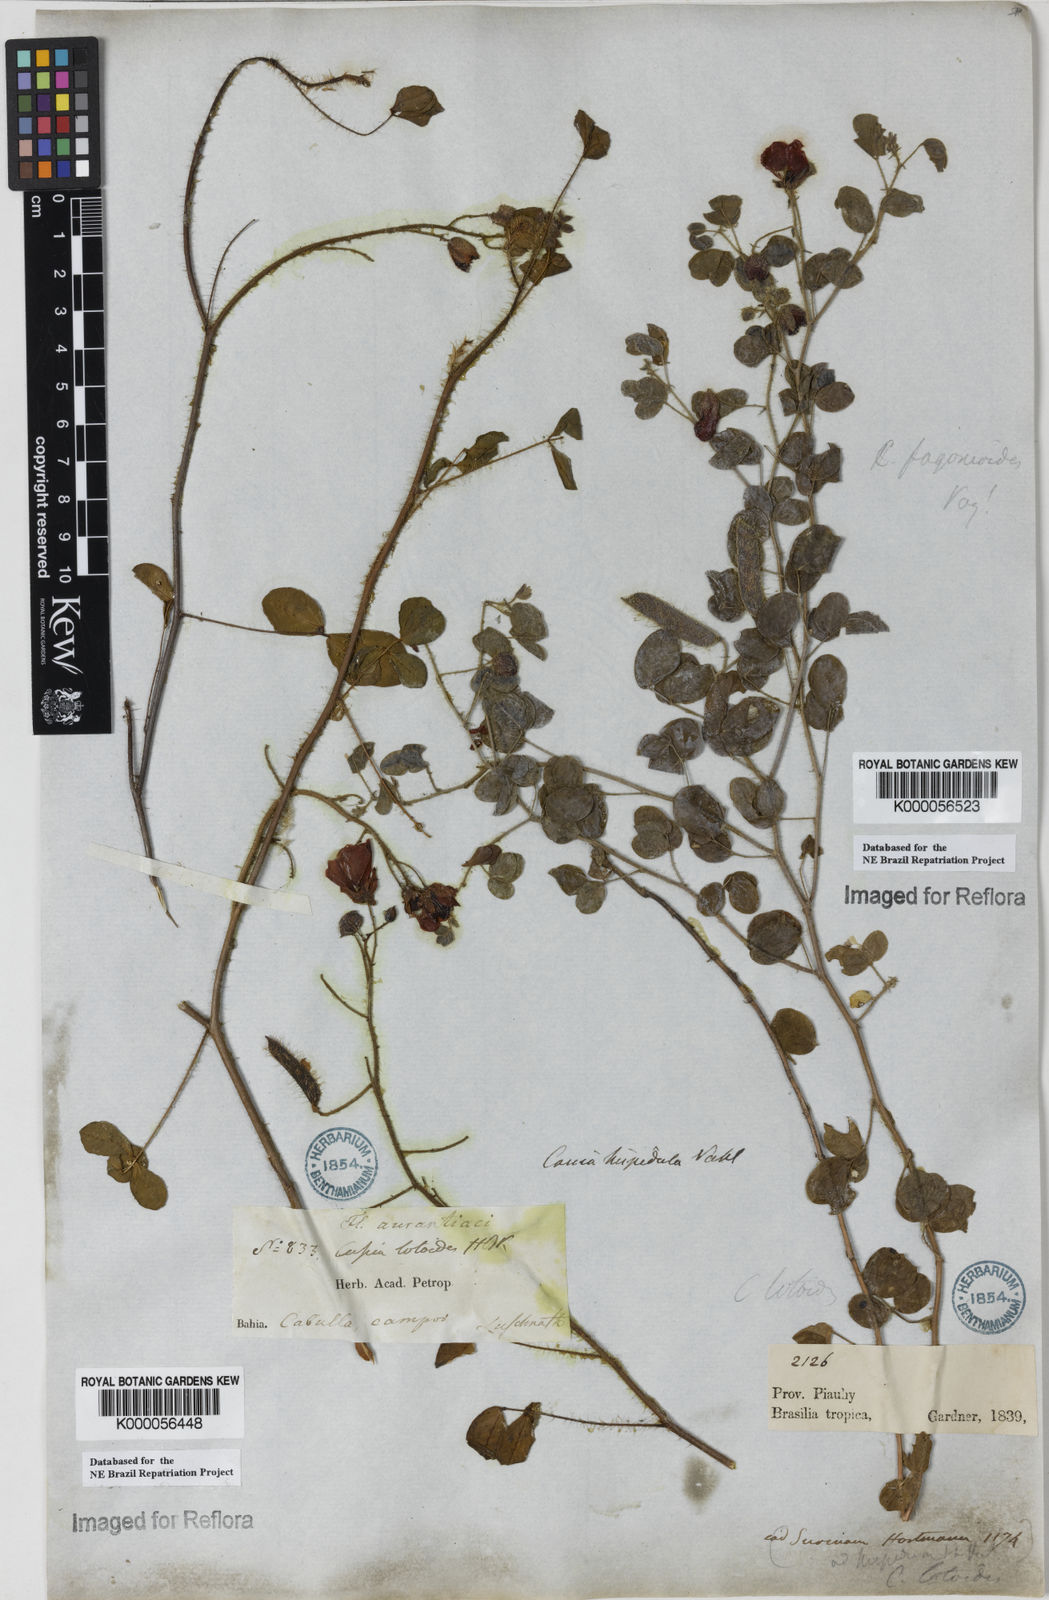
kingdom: Plantae
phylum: Tracheophyta
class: Magnoliopsida
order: Fabales
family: Fabaceae
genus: Chamaecrista
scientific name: Chamaecrista fagonioides
